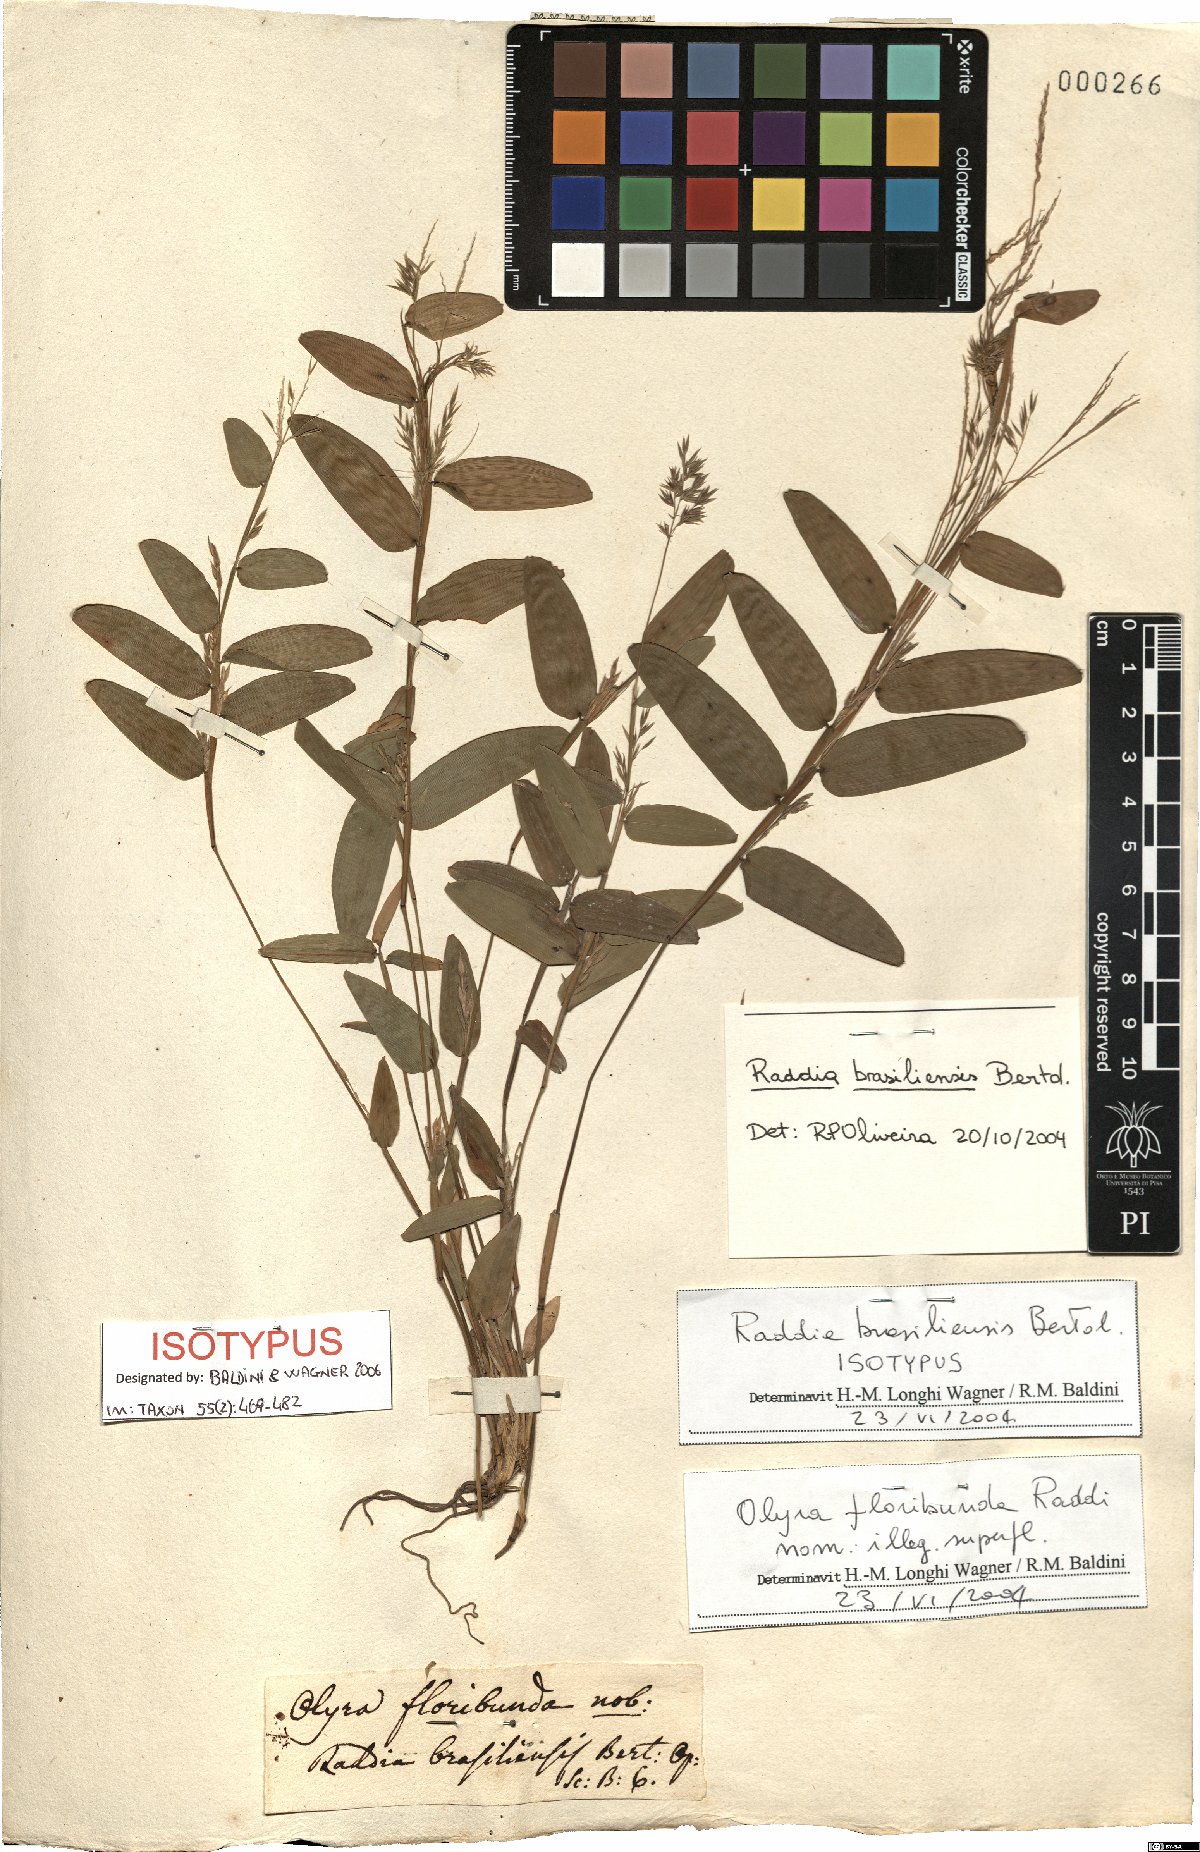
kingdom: Plantae
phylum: Tracheophyta
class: Liliopsida
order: Poales
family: Poaceae
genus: Raddia
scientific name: Raddia brasiliensis
